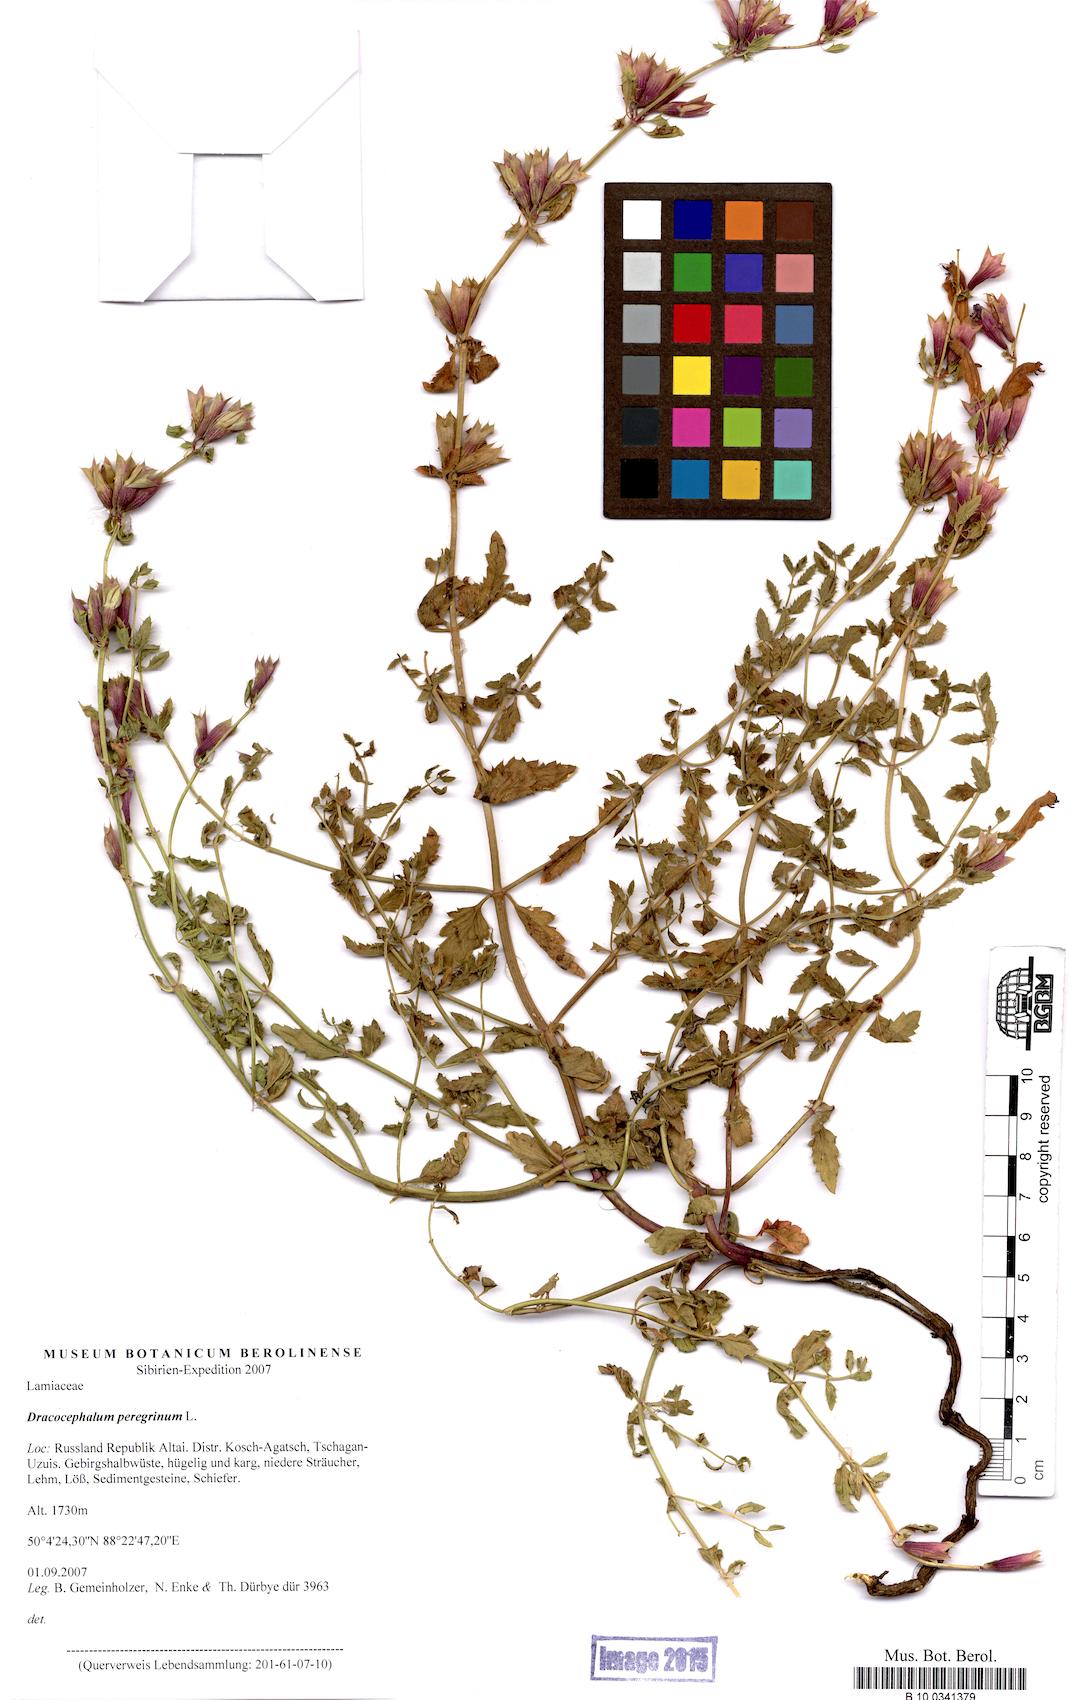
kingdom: Plantae
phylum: Tracheophyta
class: Magnoliopsida
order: Lamiales
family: Lamiaceae
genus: Dracocephalum
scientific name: Dracocephalum peregrinum
